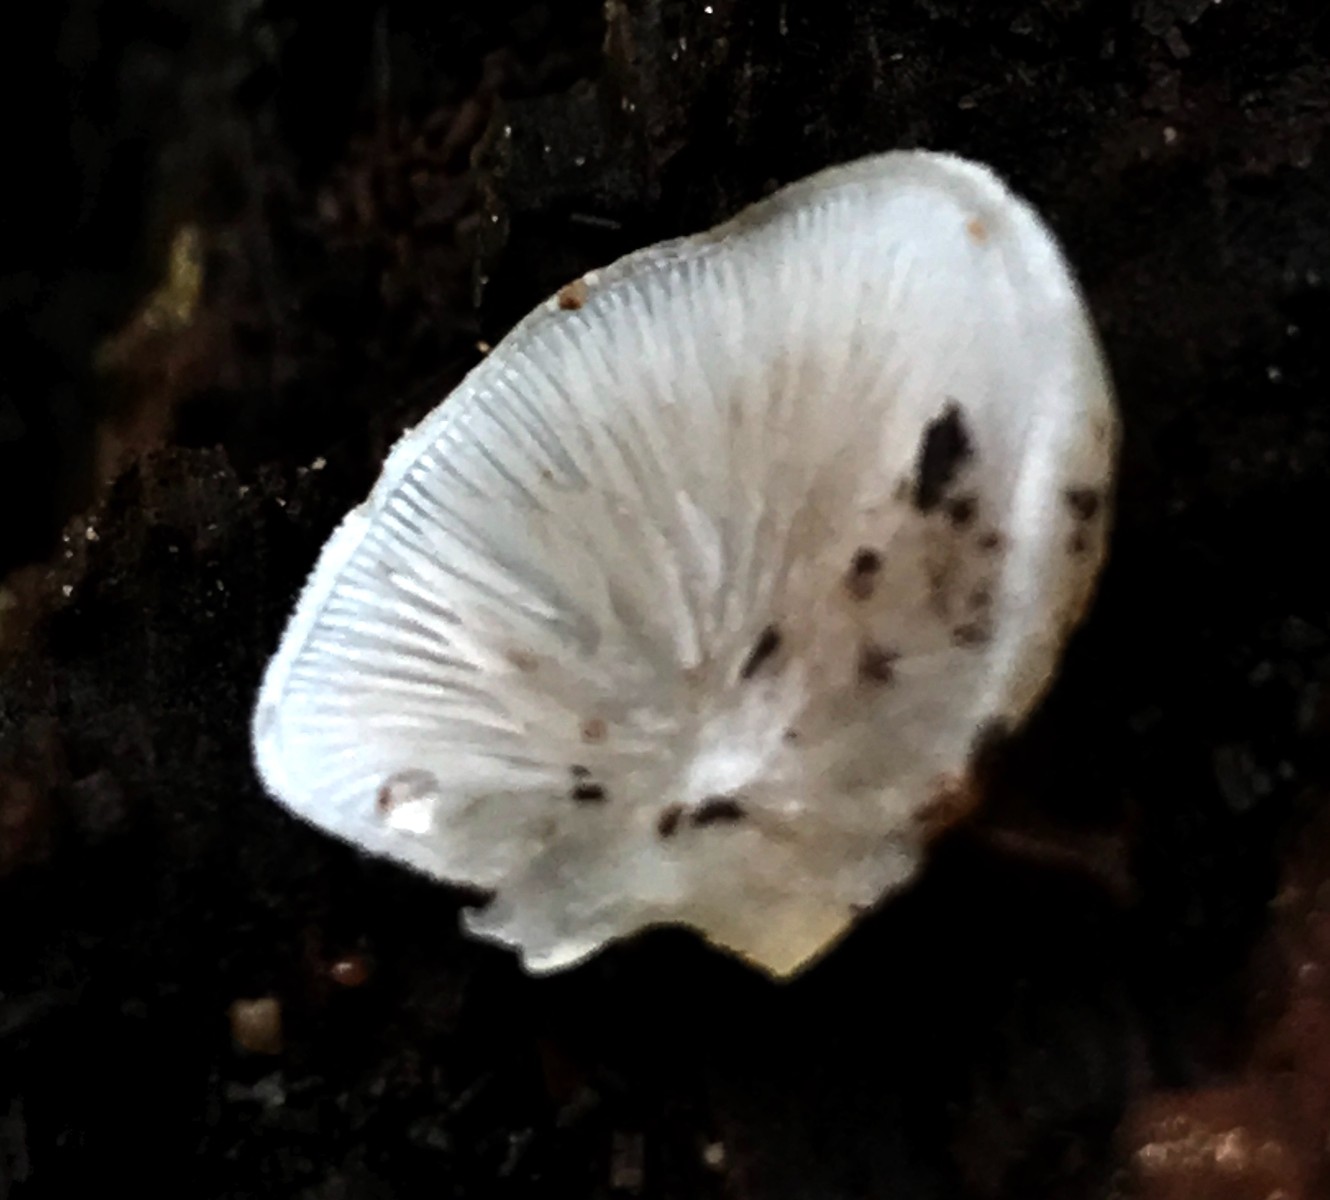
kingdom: Fungi
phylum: Basidiomycota
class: Agaricomycetes
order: Agaricales
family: Crepidotaceae
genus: Crepidotus
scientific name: Crepidotus mollis
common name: blød muslingesvamp
